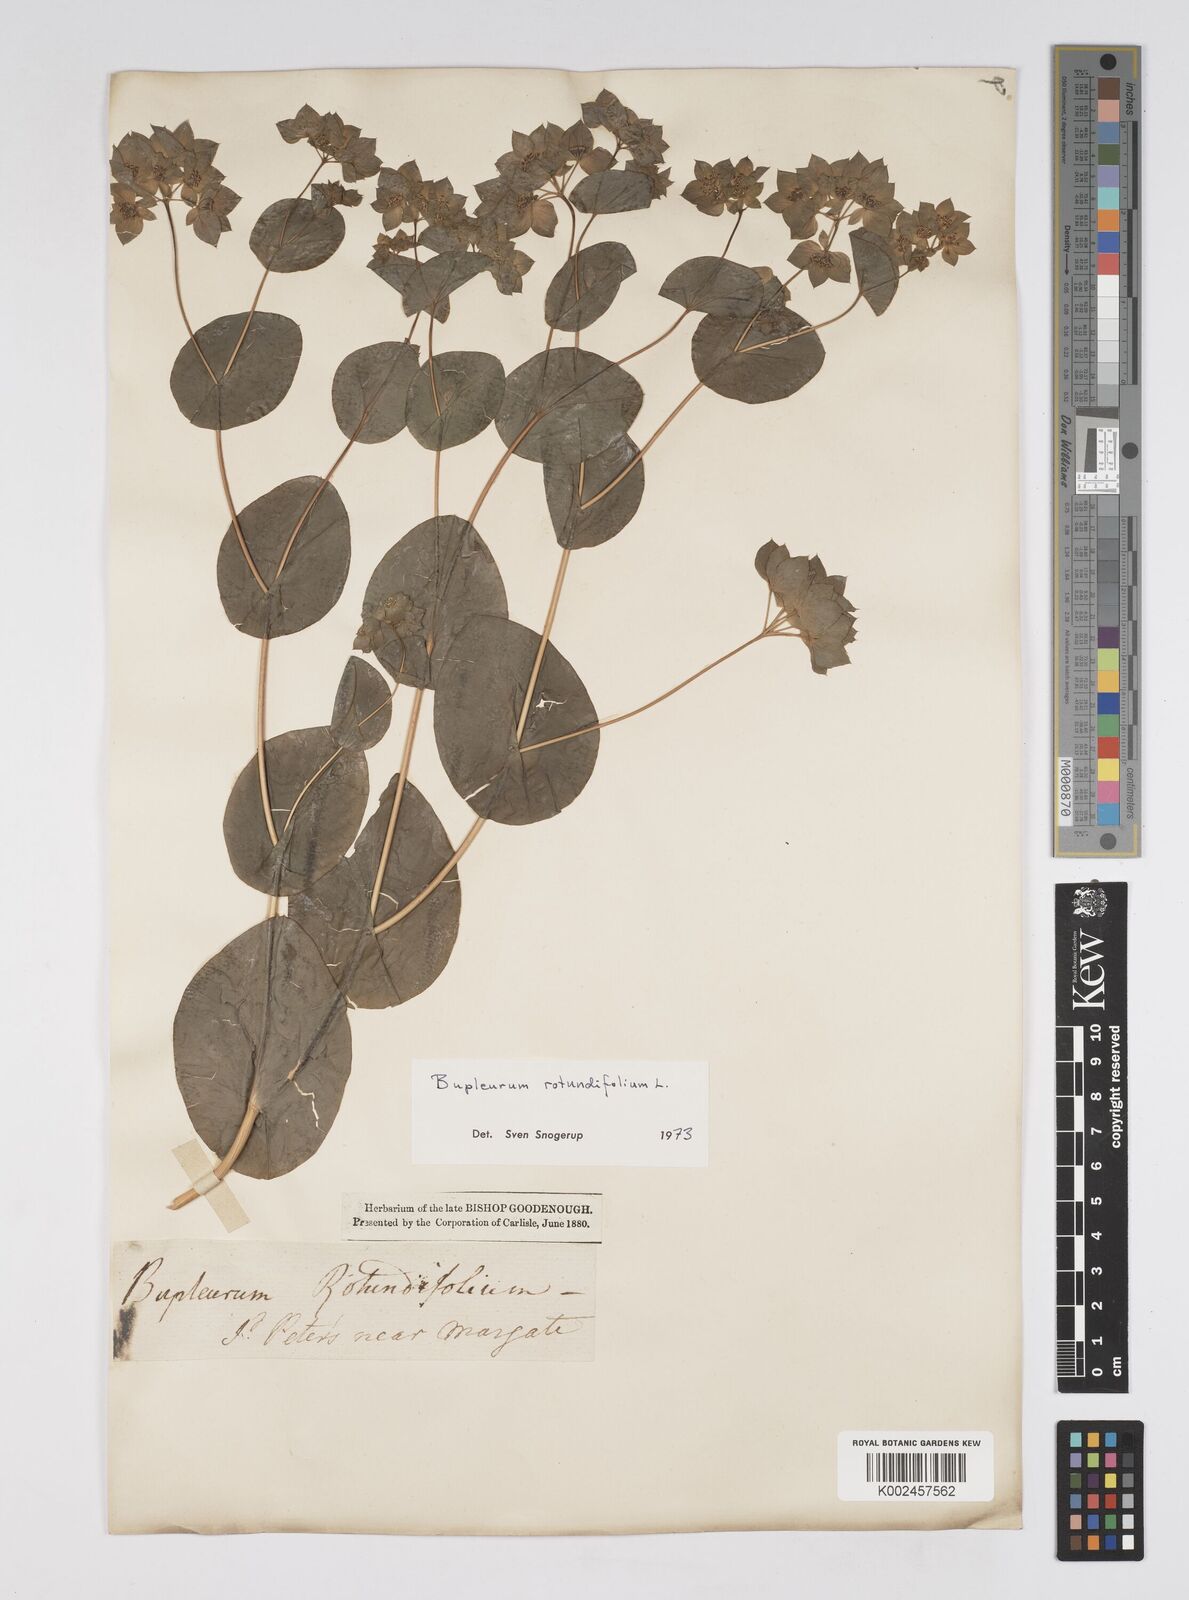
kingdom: Plantae
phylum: Tracheophyta
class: Magnoliopsida
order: Apiales
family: Apiaceae
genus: Bupleurum
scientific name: Bupleurum rotundifolium
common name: Thorow-wax
